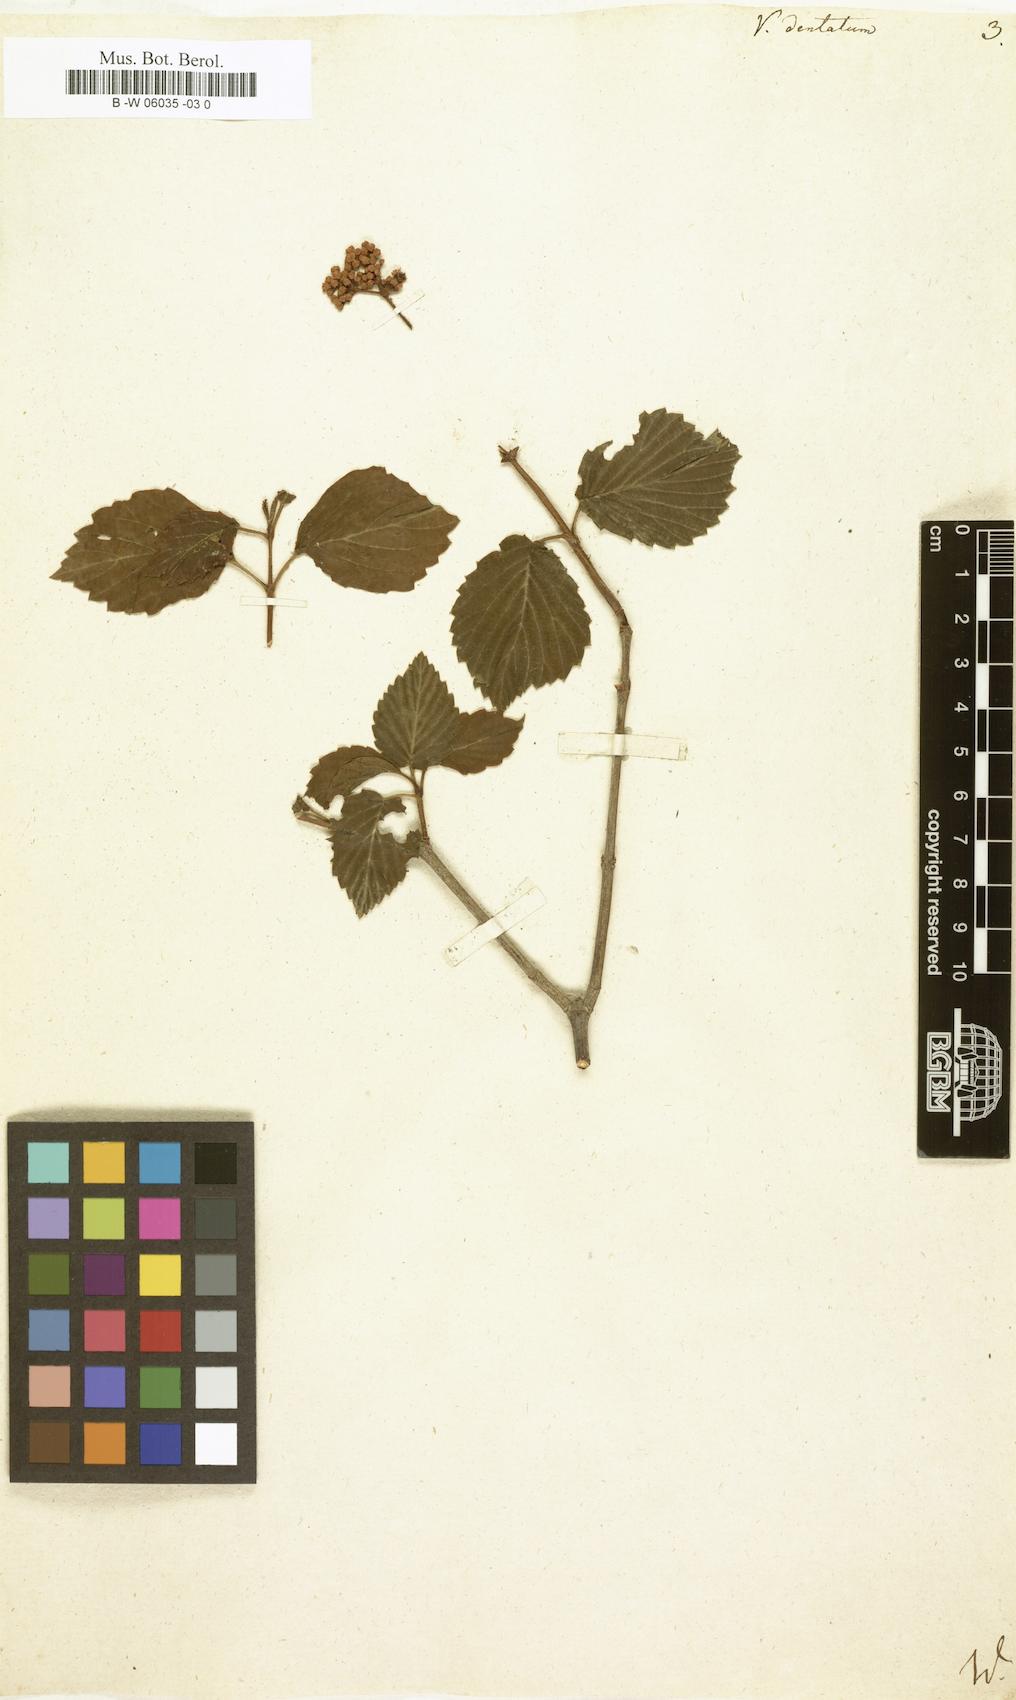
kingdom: Plantae
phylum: Tracheophyta
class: Magnoliopsida
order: Dipsacales
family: Viburnaceae
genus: Viburnum
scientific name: Viburnum dentatum
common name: Arrow-wood
